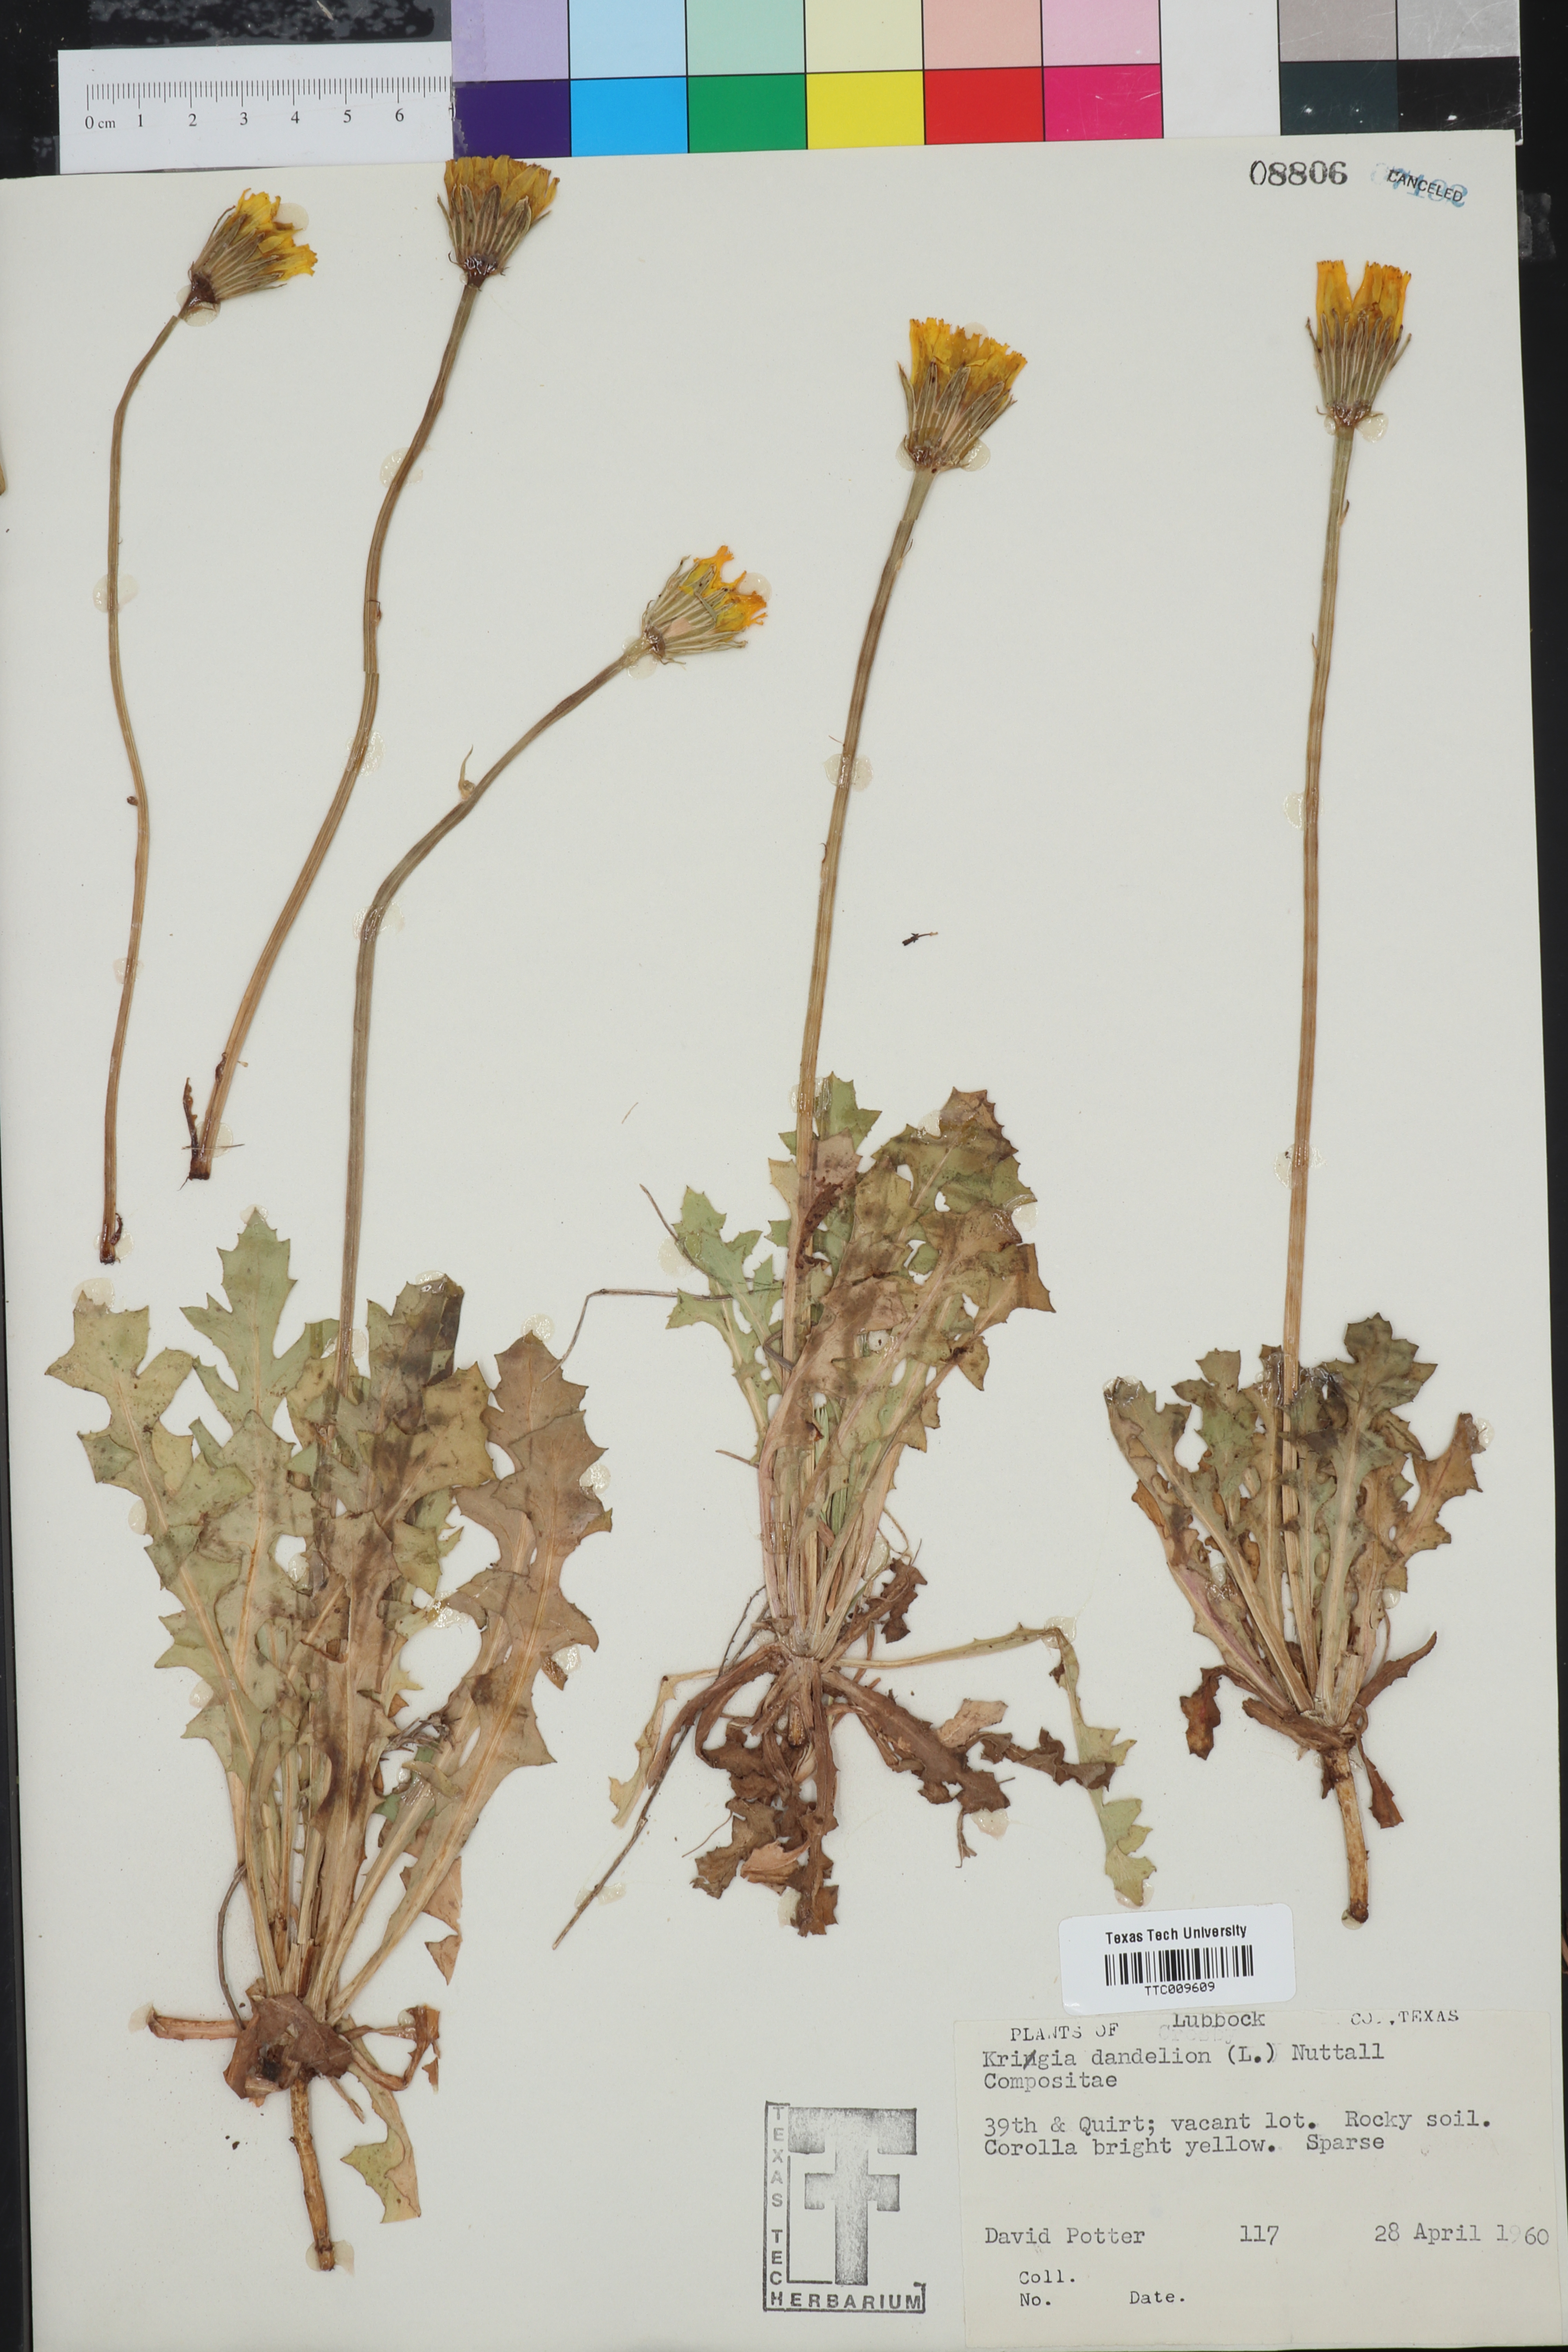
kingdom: Plantae
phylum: Tracheophyta
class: Magnoliopsida
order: Asterales
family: Asteraceae
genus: Krigia
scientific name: Krigia dandelion
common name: Colonial dwarf-dandelion
